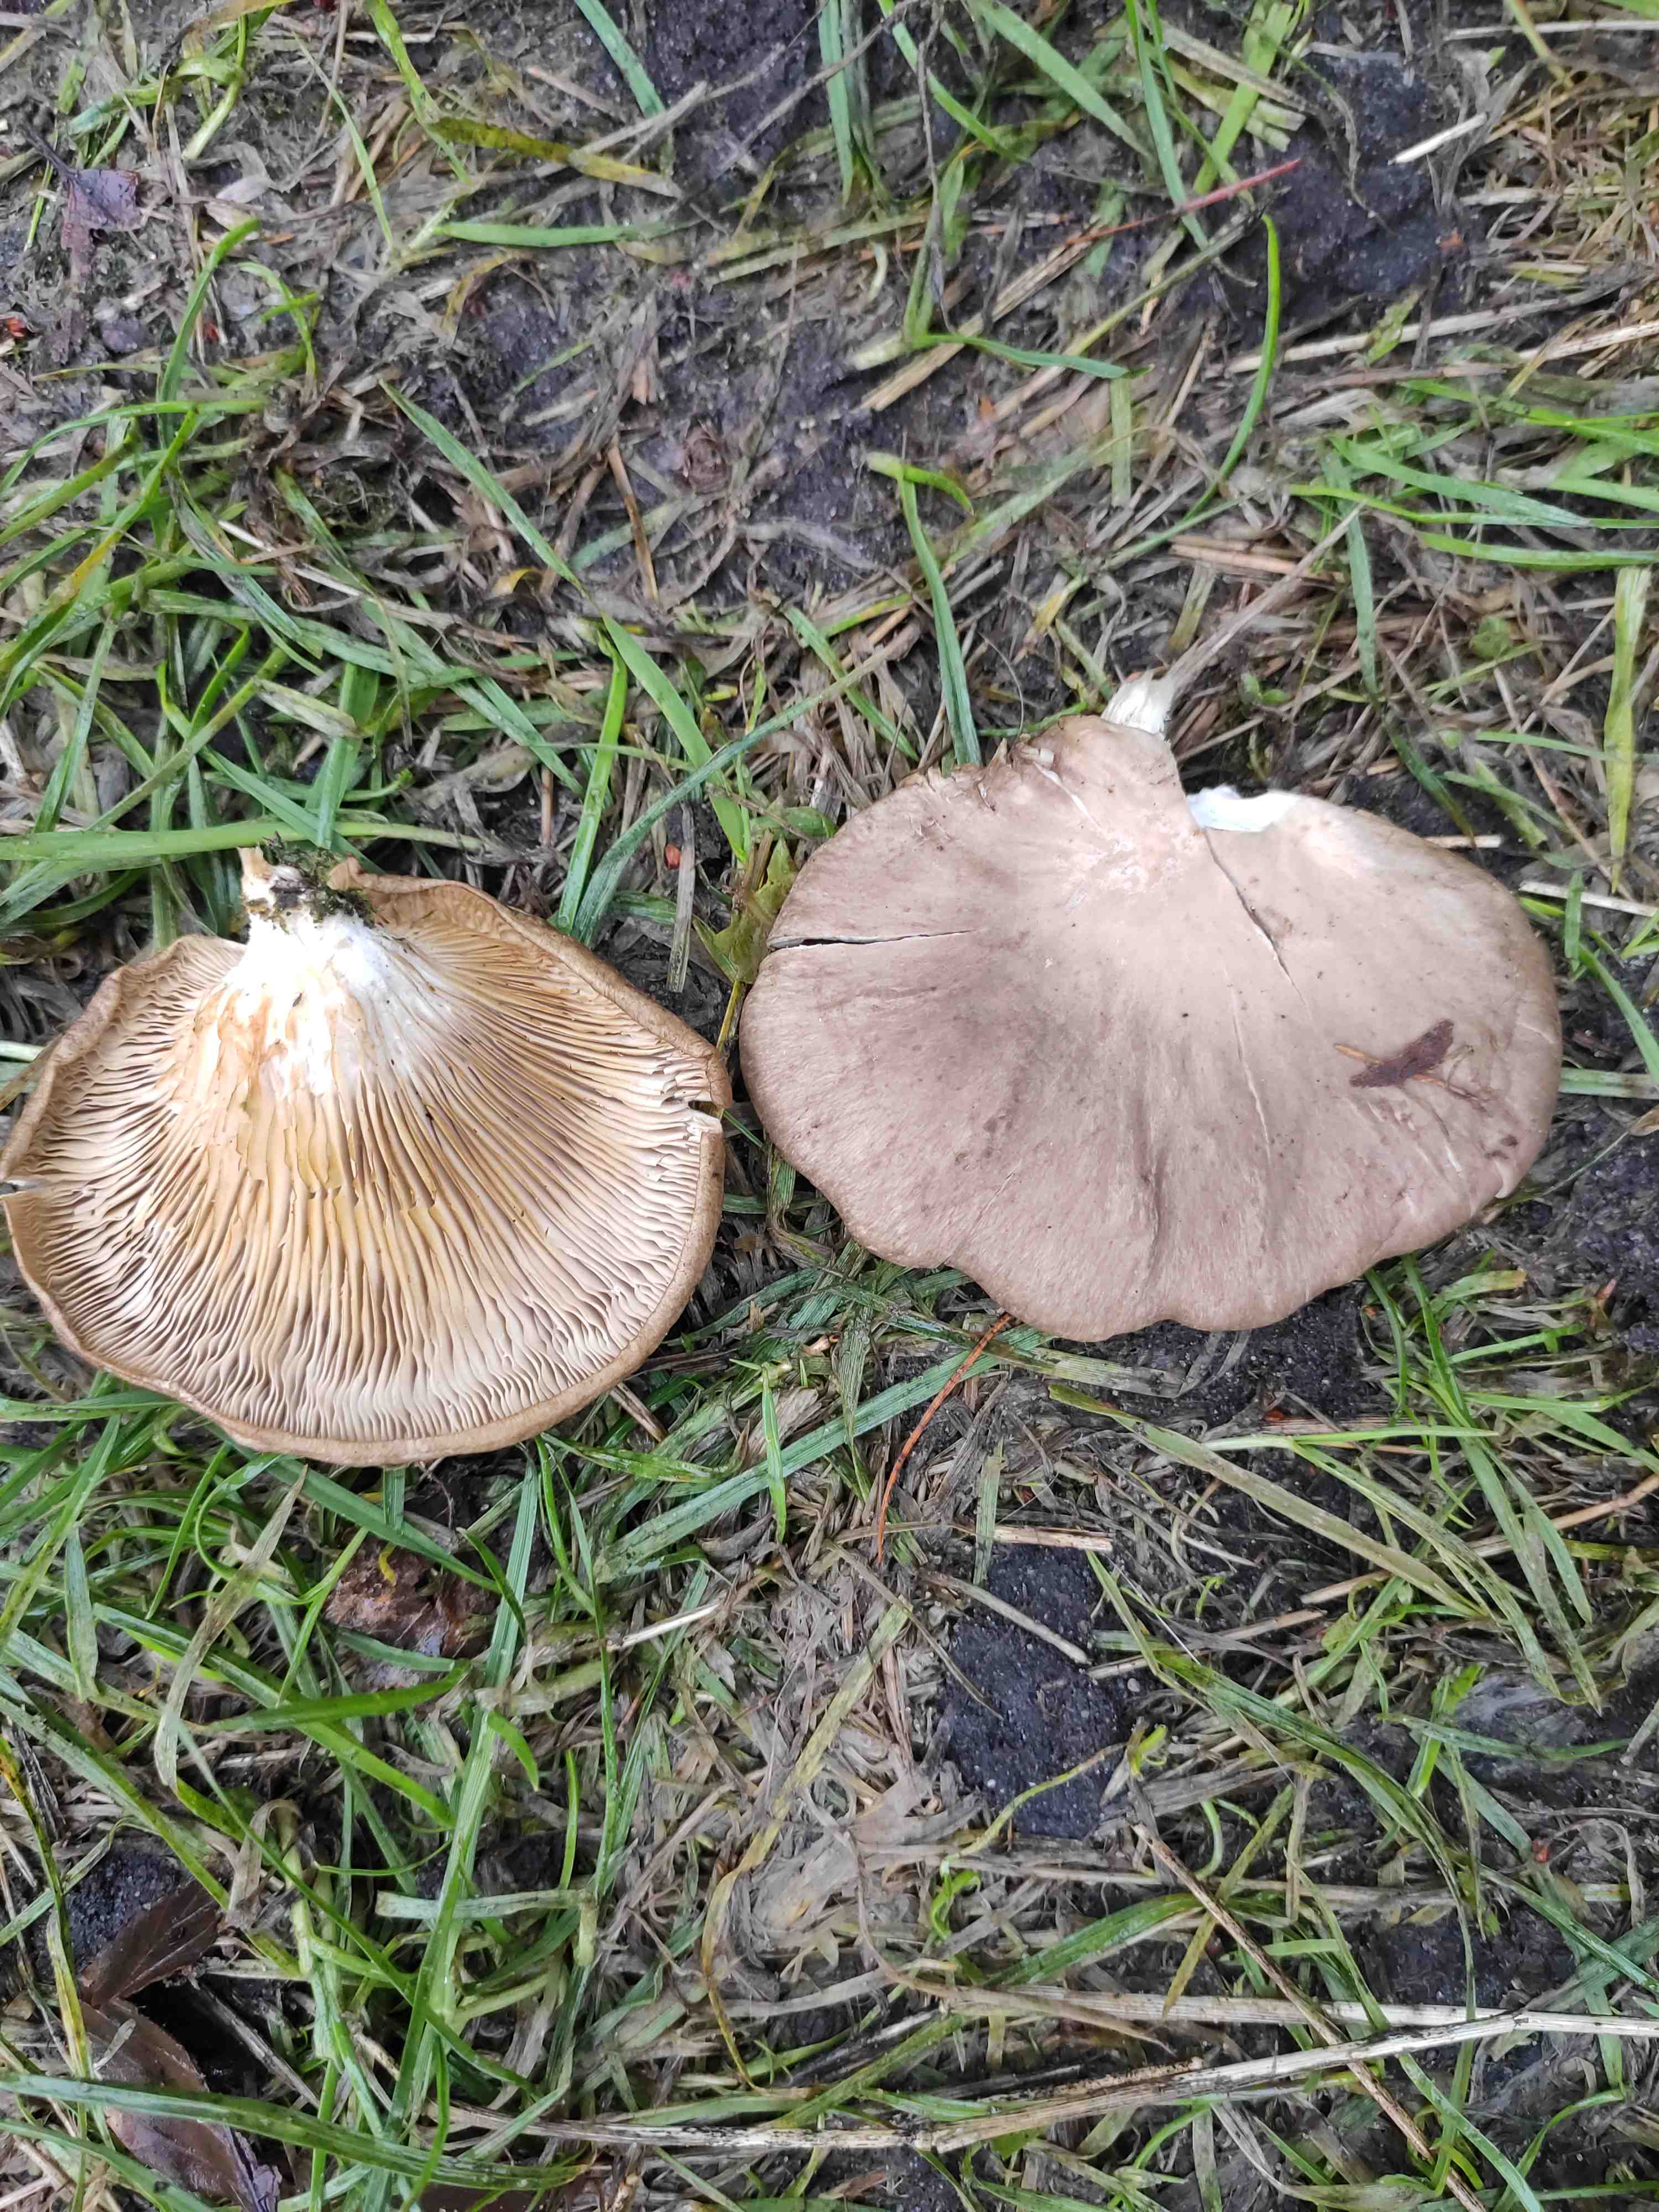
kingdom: Fungi
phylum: Basidiomycota
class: Agaricomycetes
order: Agaricales
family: Pleurotaceae
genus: Pleurotus
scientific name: Pleurotus ostreatus
